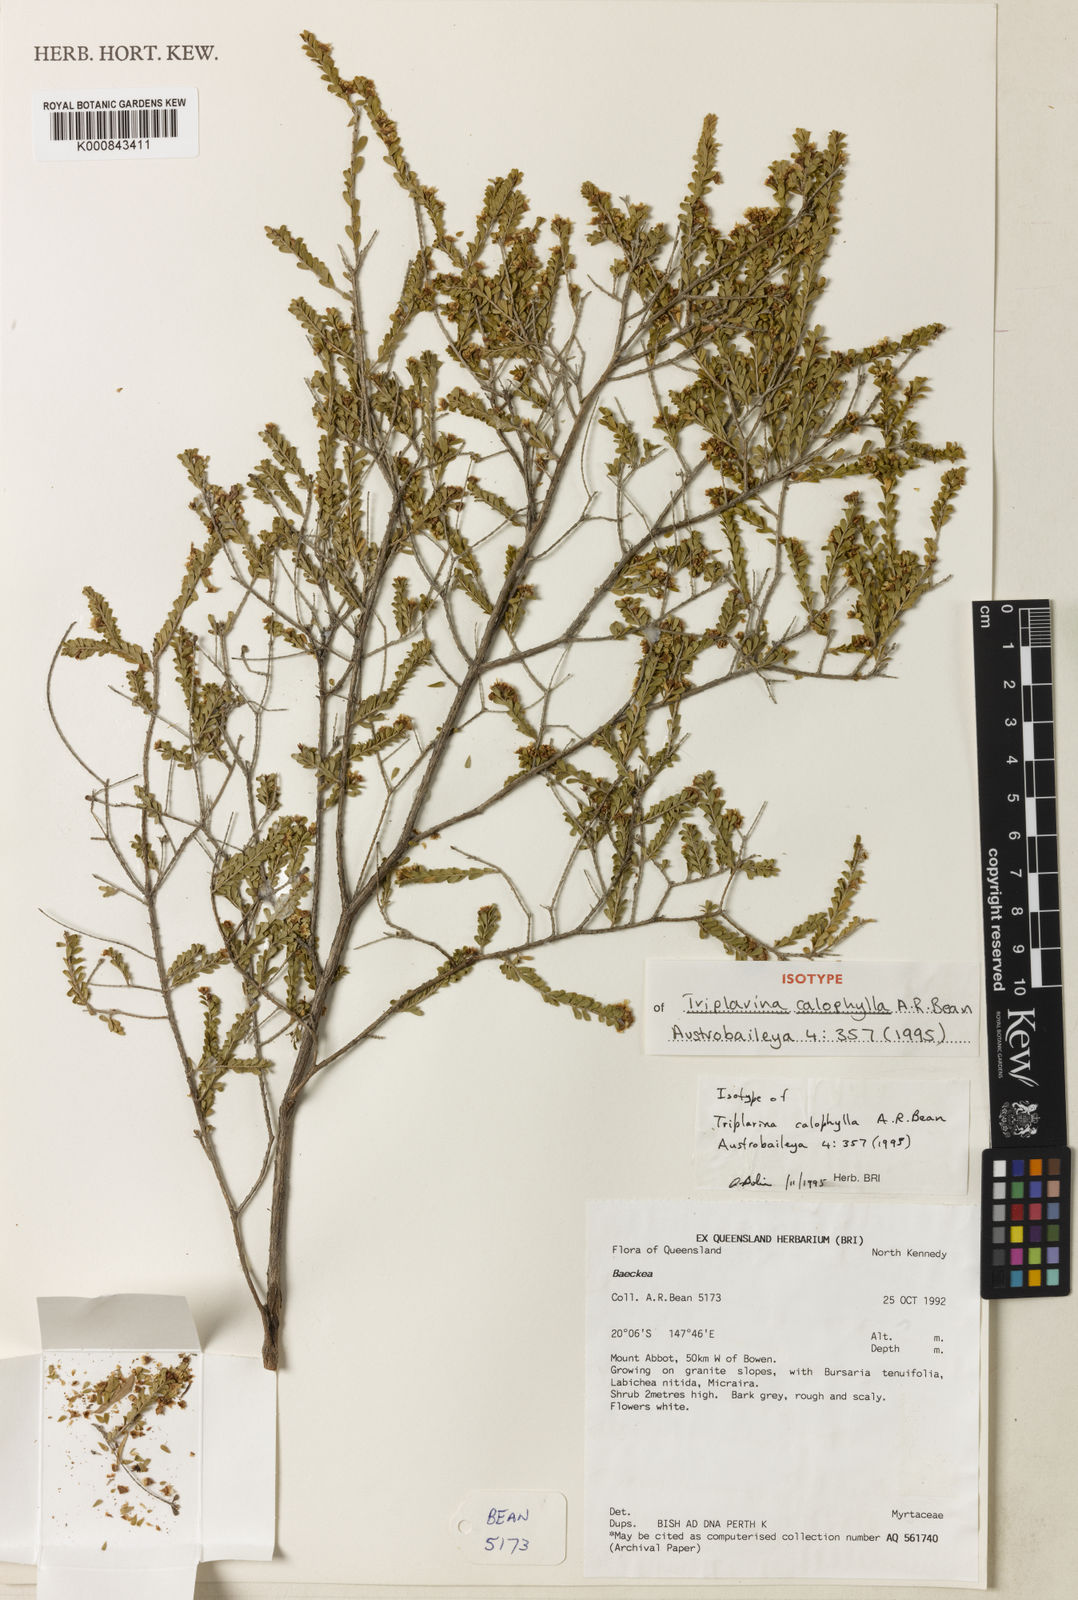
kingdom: Plantae
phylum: Tracheophyta
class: Magnoliopsida
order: Myrtales
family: Myrtaceae
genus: Triplarina
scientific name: Triplarina calophylla
